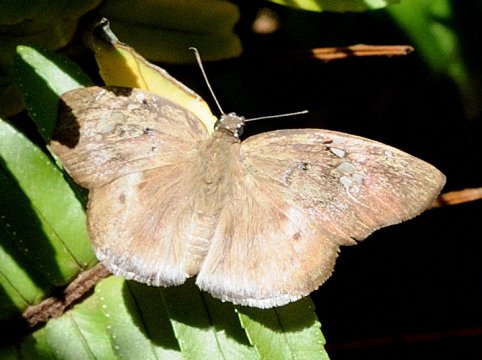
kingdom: Animalia
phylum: Arthropoda
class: Insecta
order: Lepidoptera
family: Hesperiidae
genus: Tagiades
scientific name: Tagiades flesus
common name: Clouded Flat
